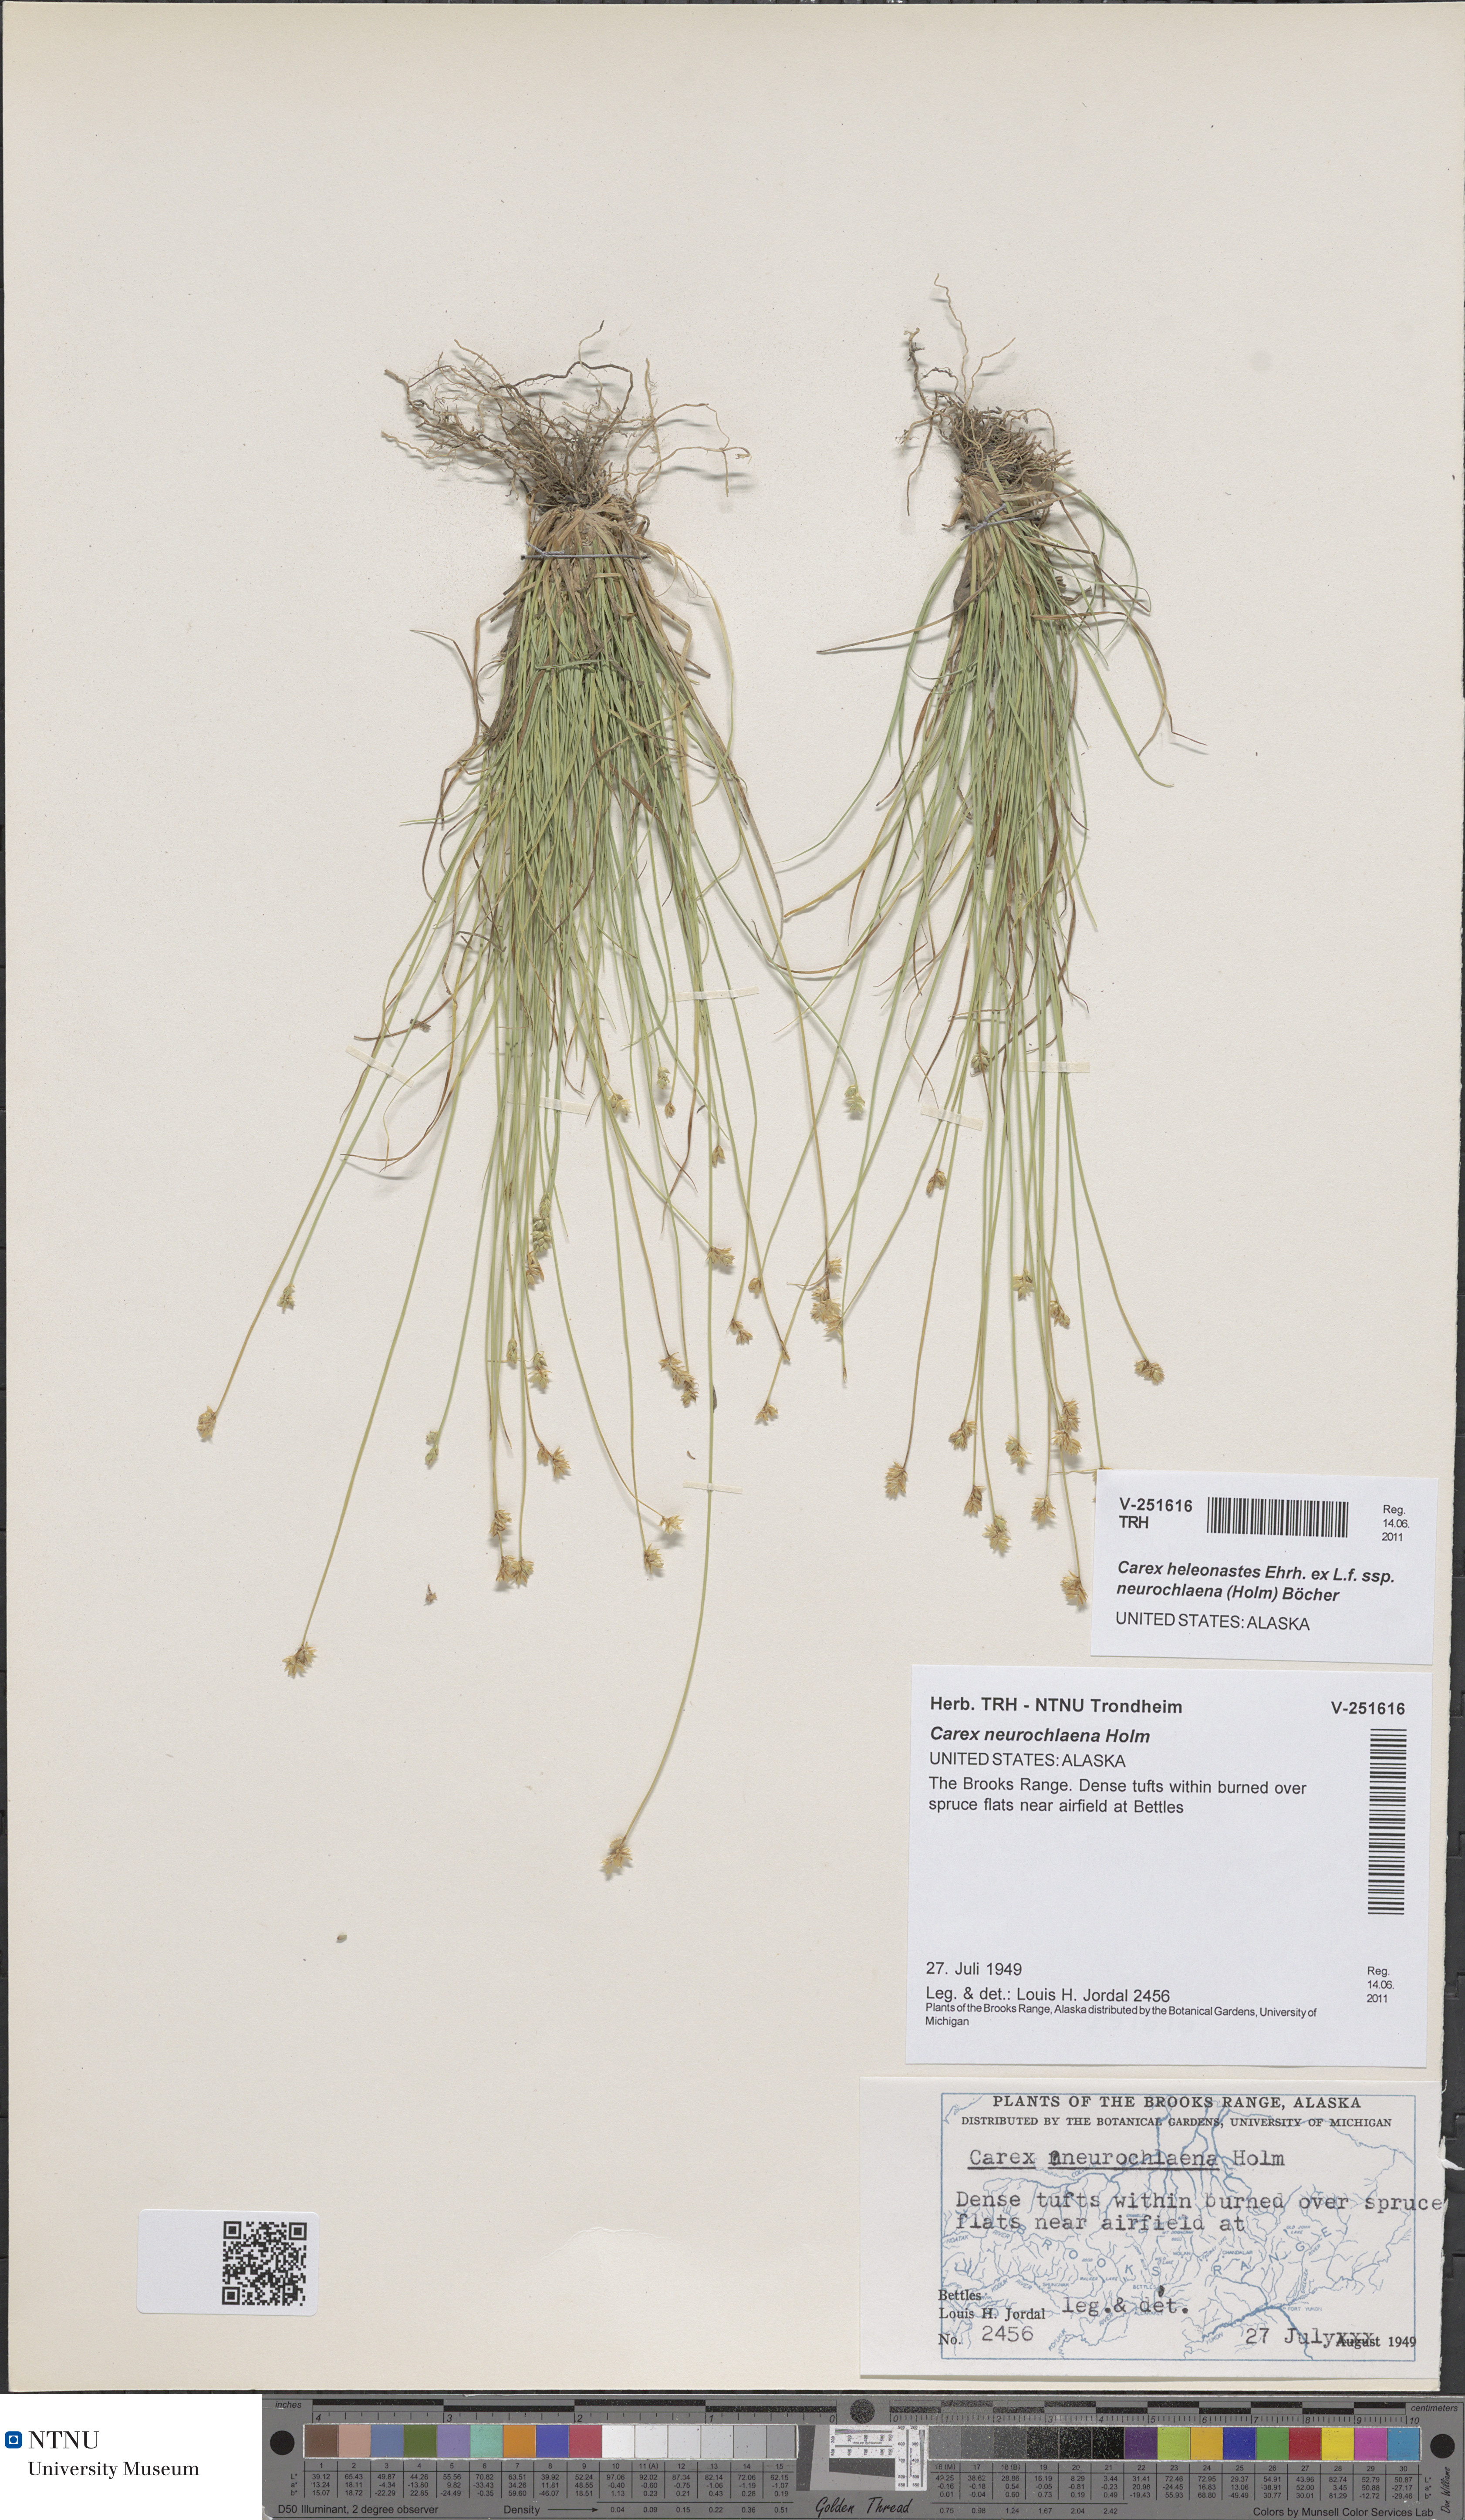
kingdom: Plantae
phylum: Tracheophyta
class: Liliopsida
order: Poales
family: Cyperaceae
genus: Carex
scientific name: Carex heleonastes
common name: Hudson bay sedge
